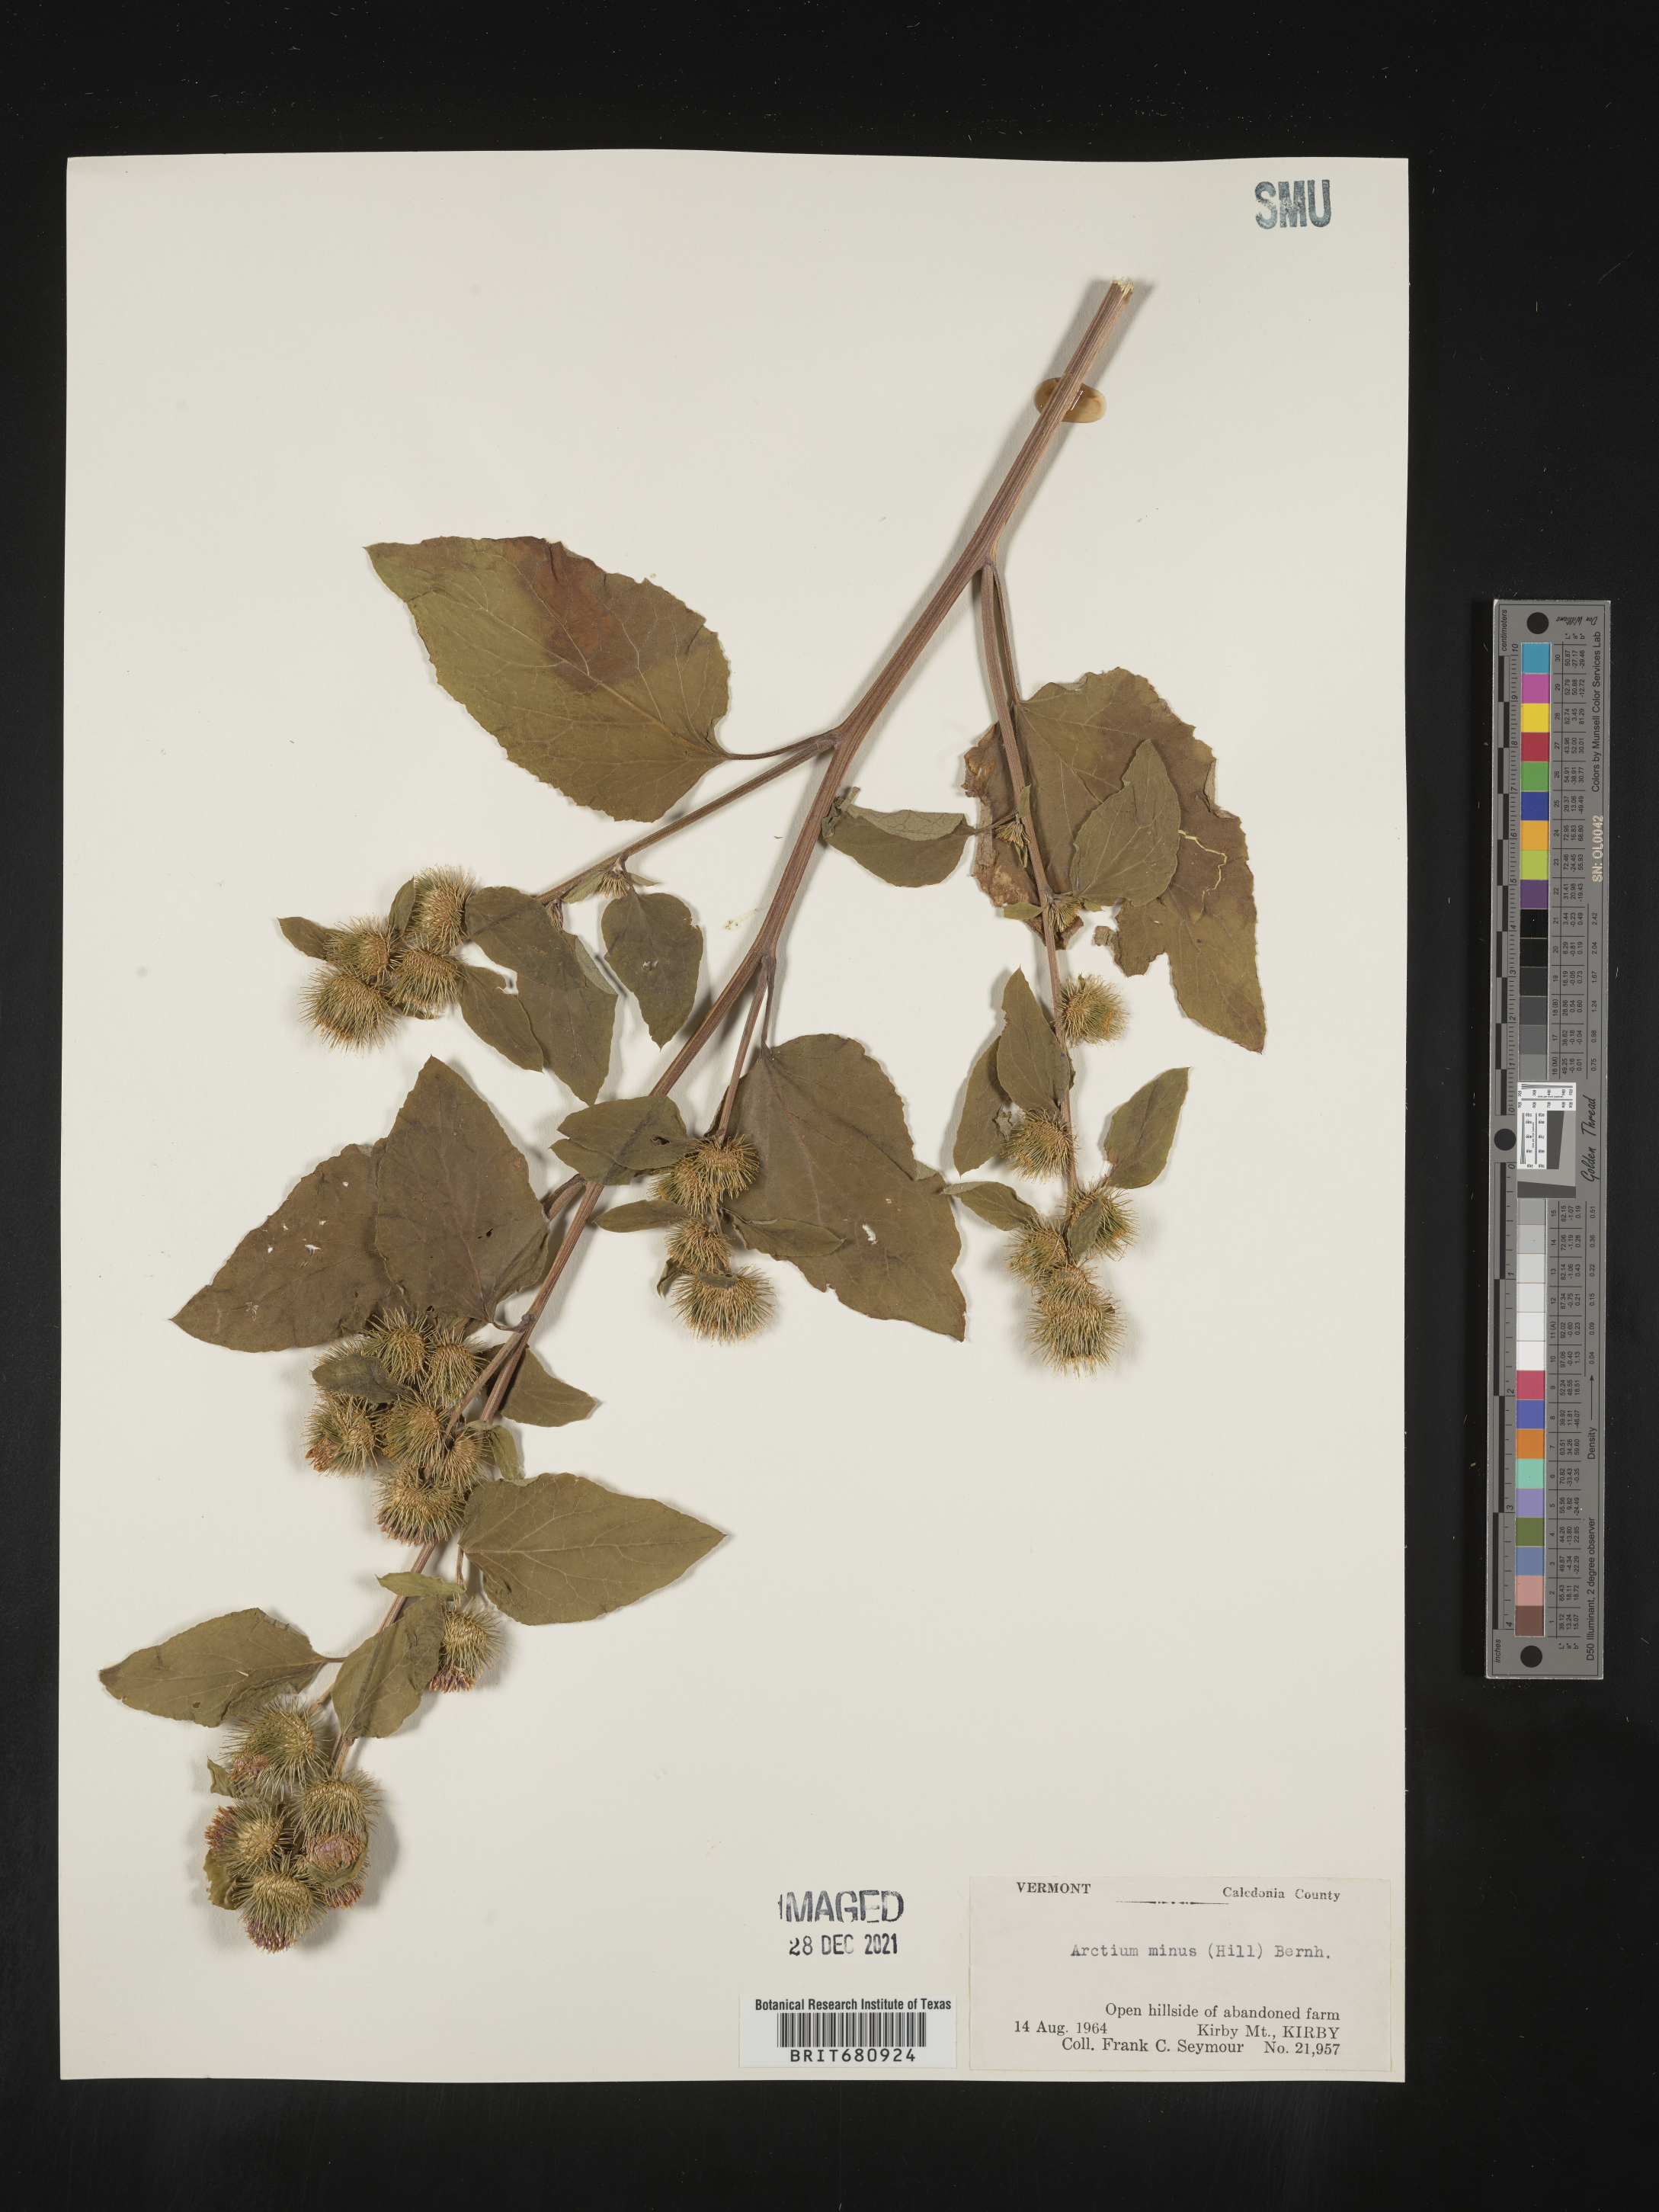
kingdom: Plantae
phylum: Tracheophyta
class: Magnoliopsida
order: Asterales
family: Asteraceae
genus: Arctium
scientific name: Arctium minus
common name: Lesser burdock
